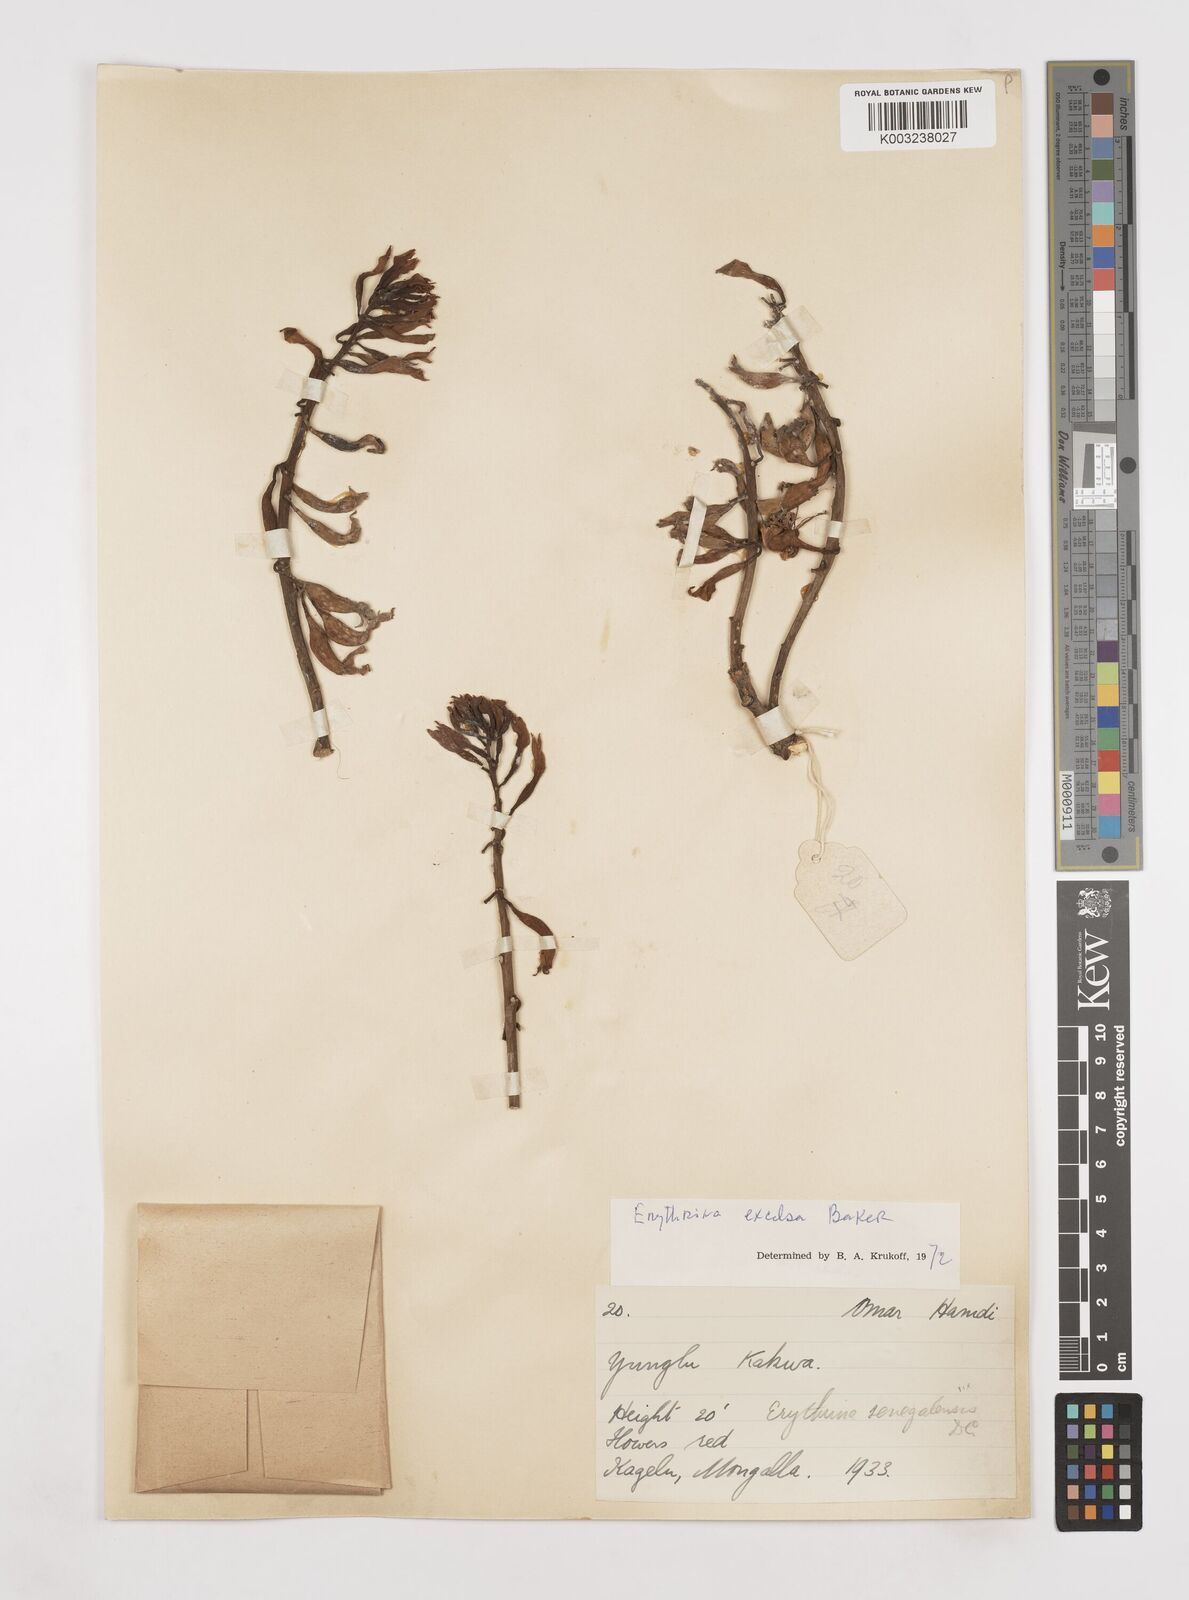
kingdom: Plantae
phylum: Tracheophyta
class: Magnoliopsida
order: Fabales
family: Fabaceae
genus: Erythrina
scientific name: Erythrina excelsa
